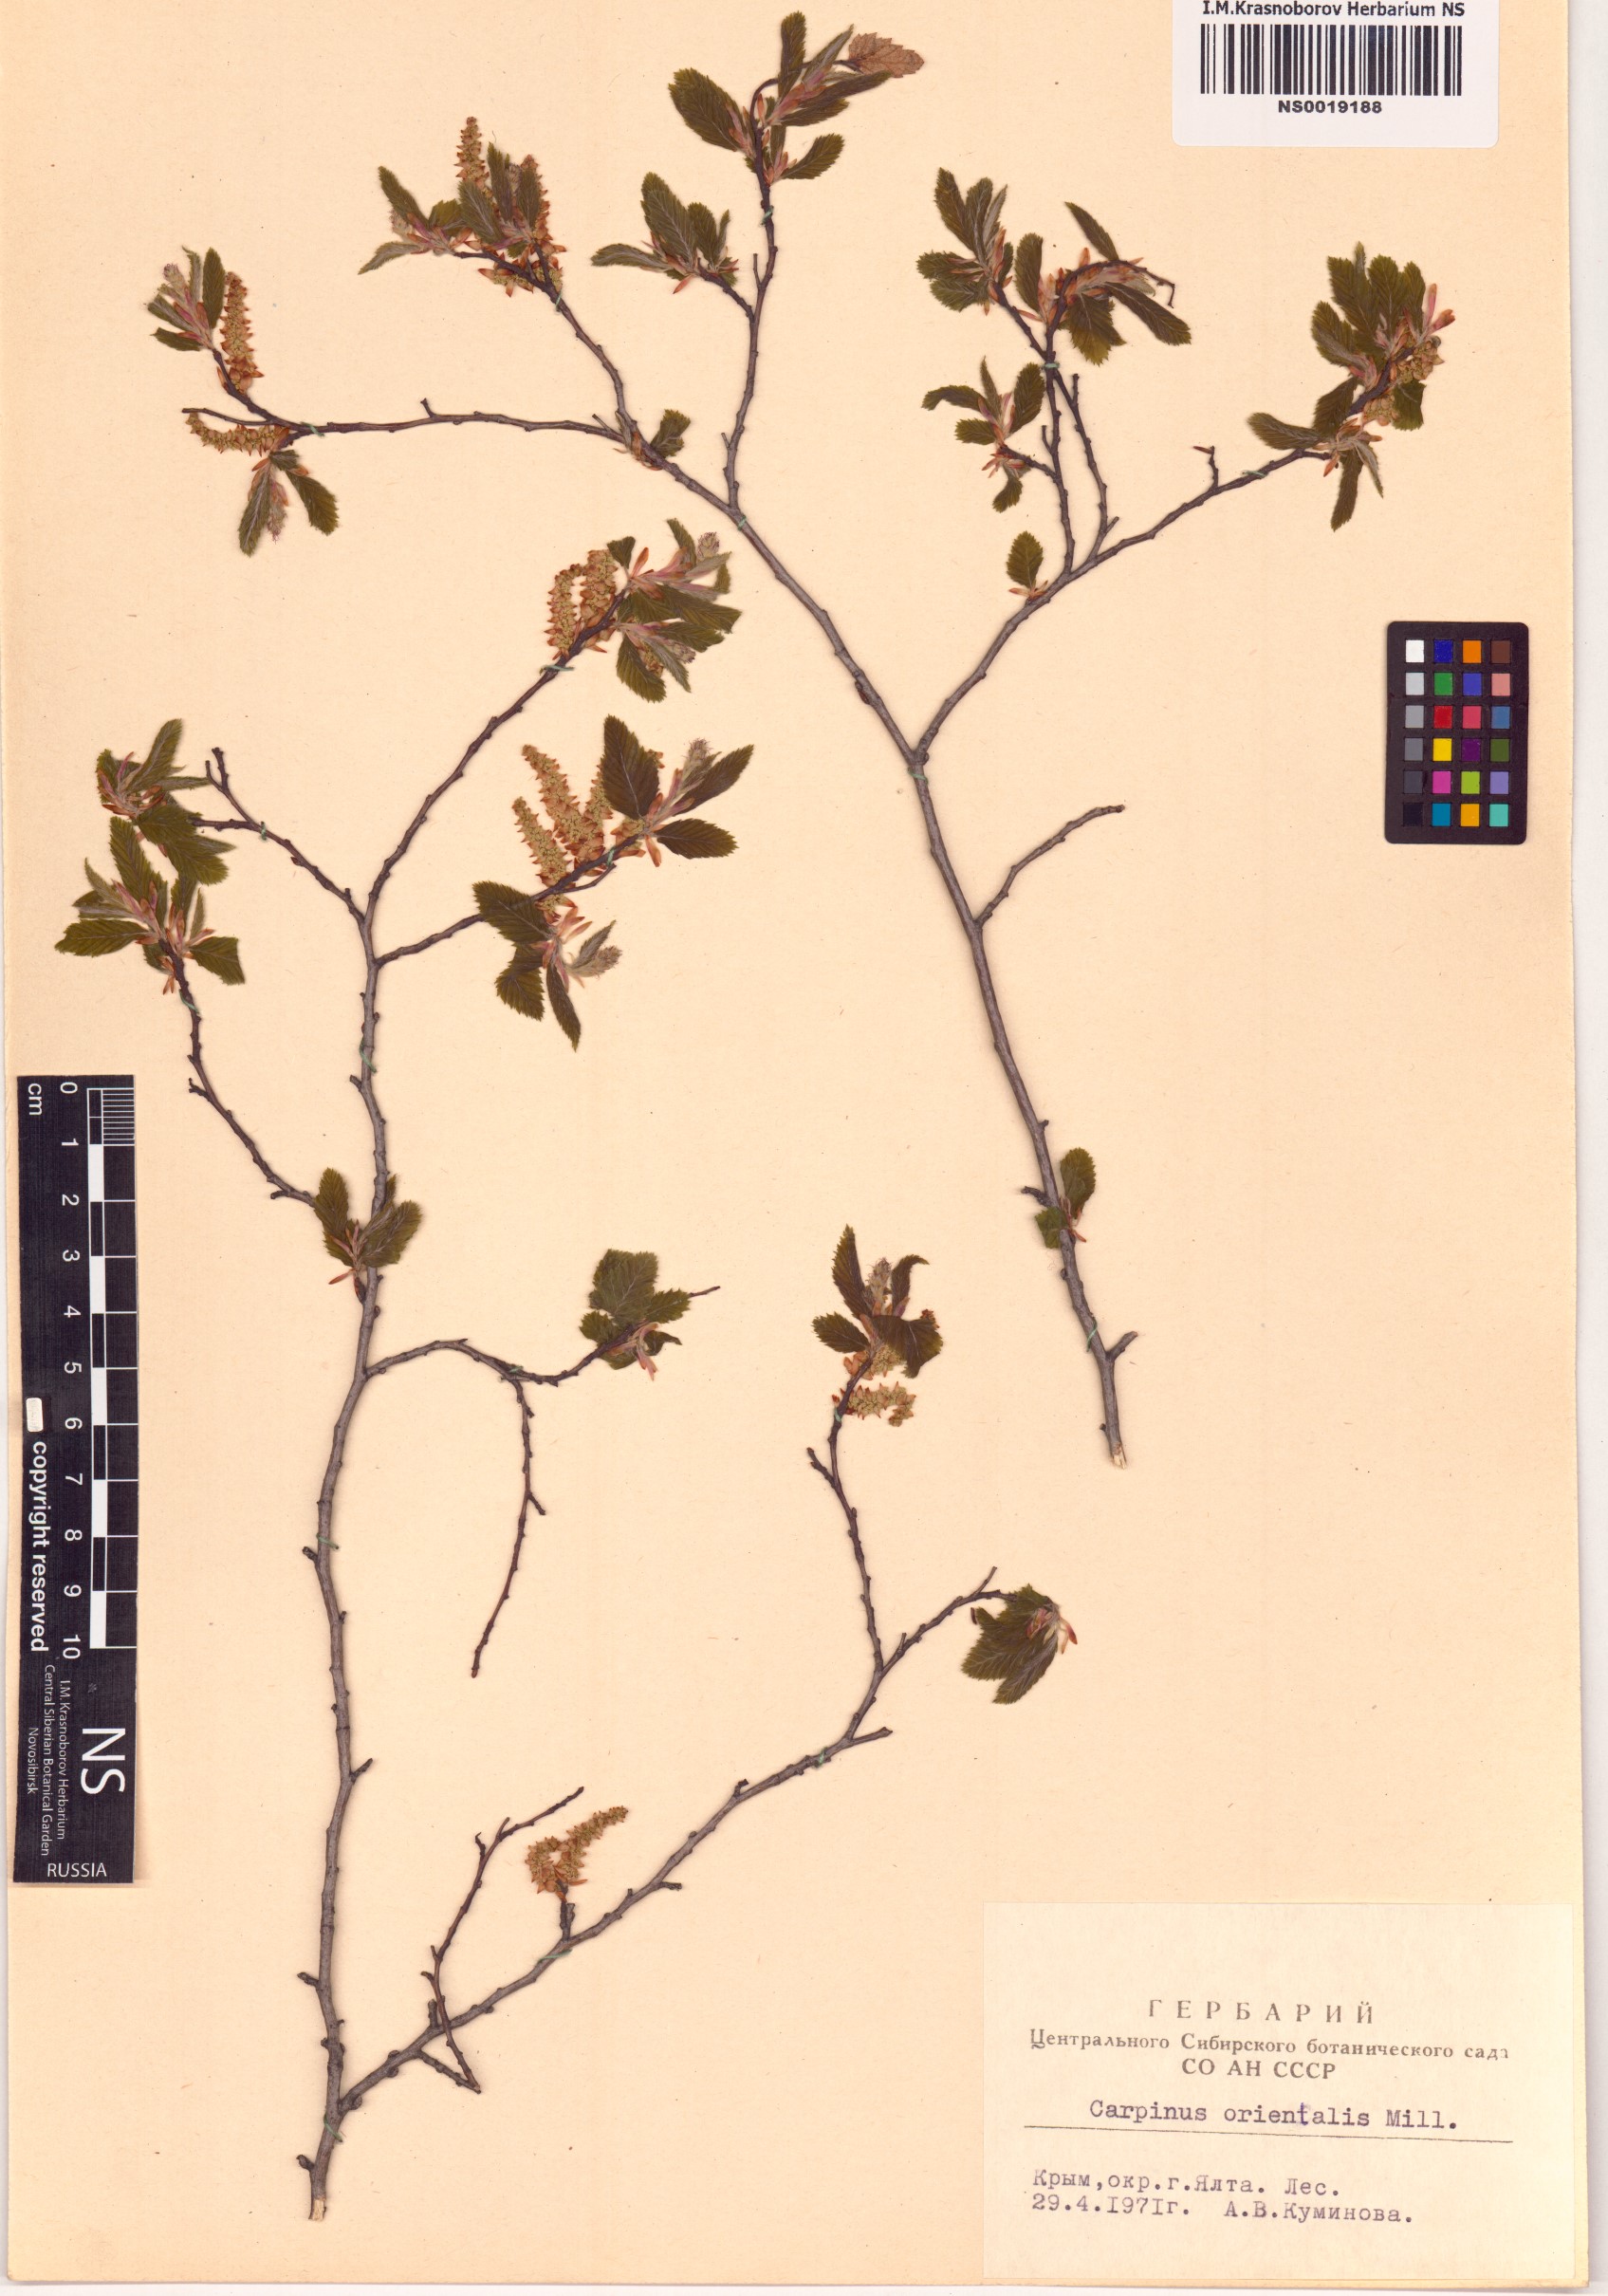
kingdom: Plantae
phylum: Tracheophyta
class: Magnoliopsida
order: Fagales
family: Betulaceae
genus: Carpinus
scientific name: Carpinus orientalis
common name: Eastern hornbeam
